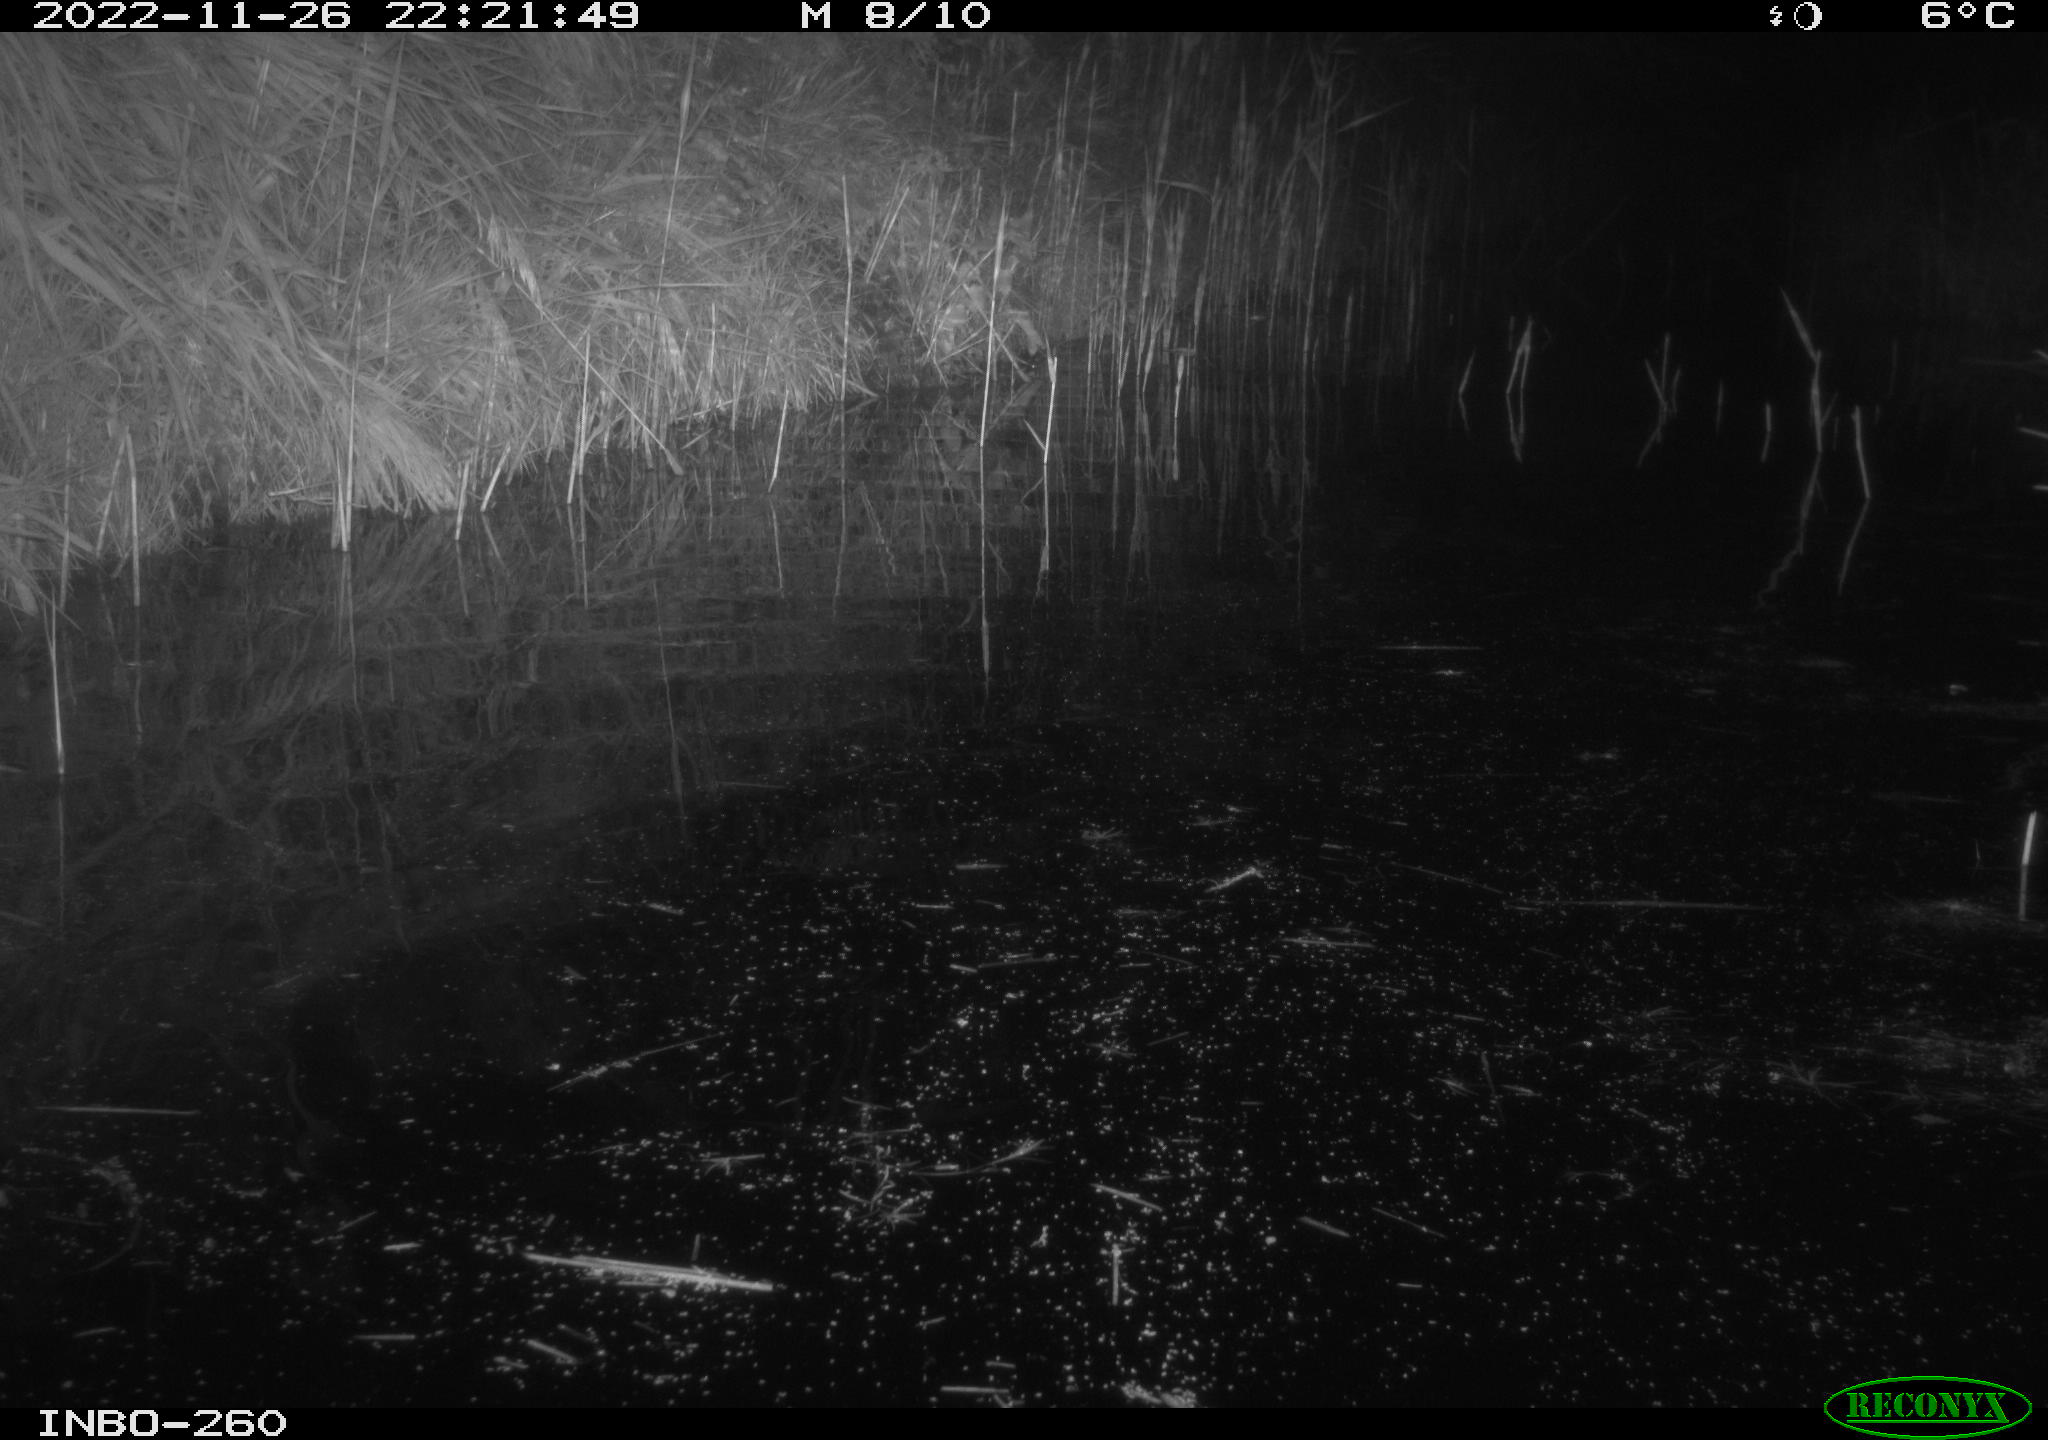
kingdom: Animalia
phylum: Chordata
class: Mammalia
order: Rodentia
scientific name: Rodentia
